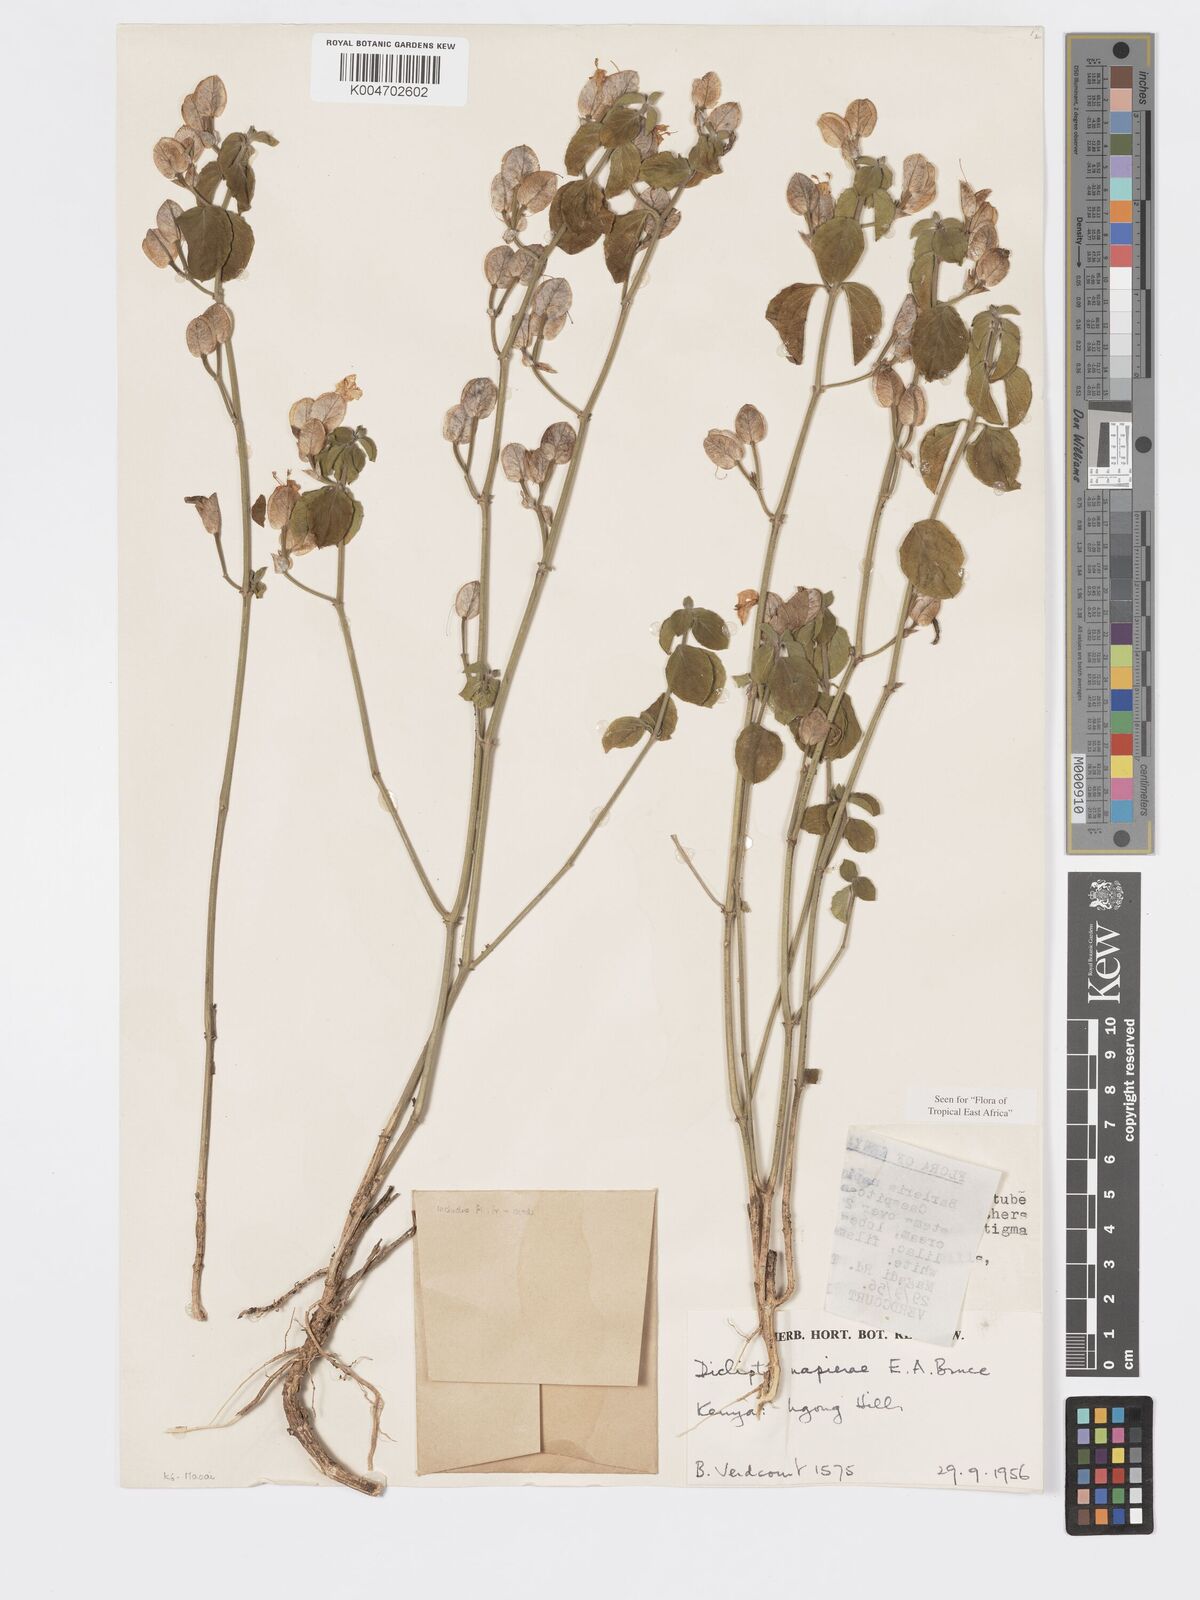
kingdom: Plantae
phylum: Tracheophyta
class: Magnoliopsida
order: Lamiales
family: Acanthaceae
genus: Dicliptera
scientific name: Dicliptera napierae
